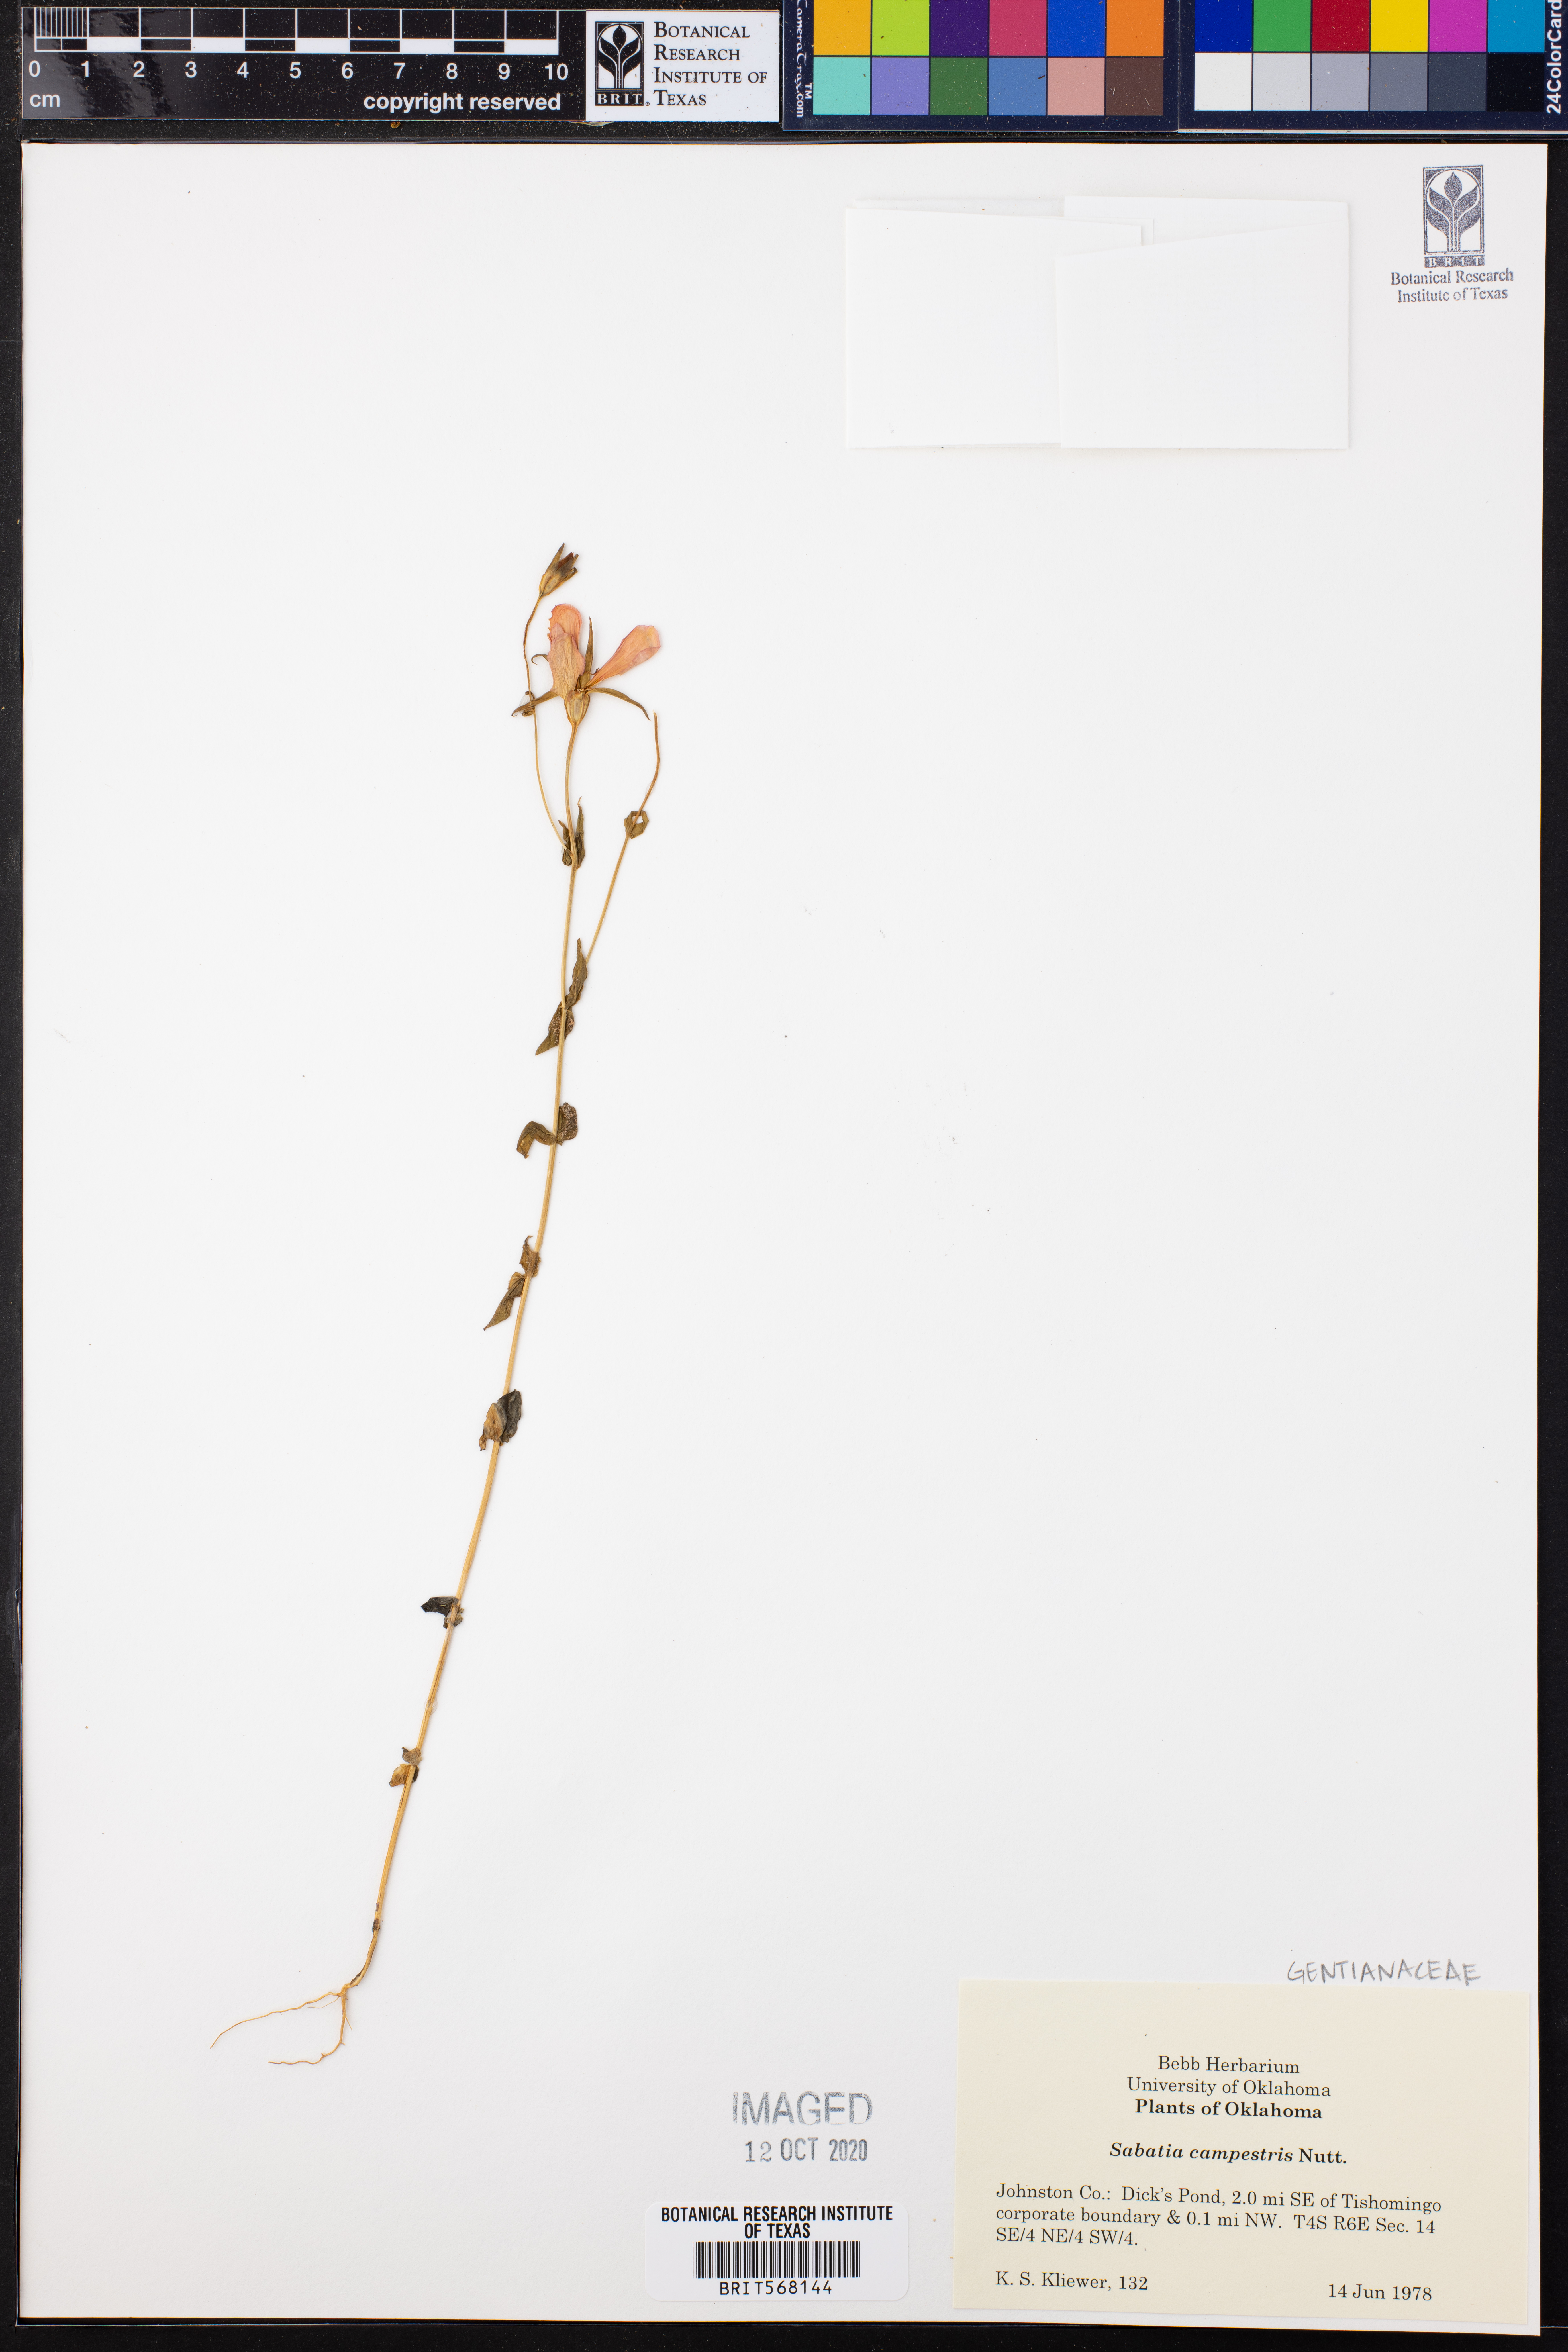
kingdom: Plantae
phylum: Tracheophyta
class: Magnoliopsida
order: Gentianales
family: Gentianaceae
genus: Sabatia
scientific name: Sabatia campestris
